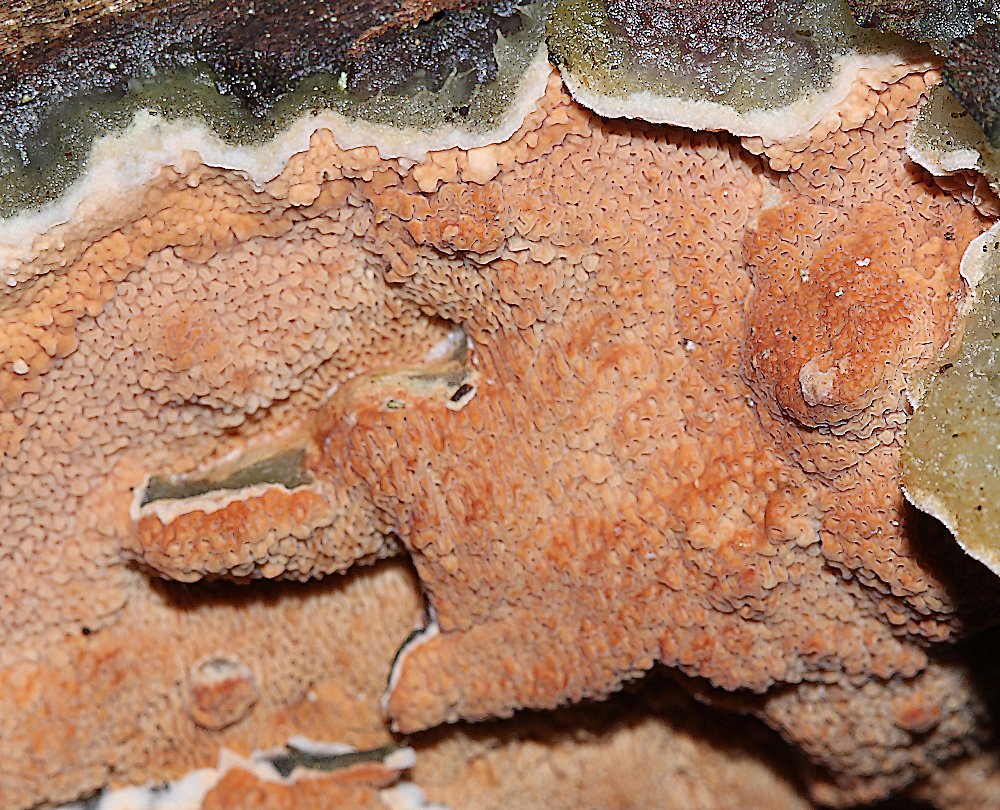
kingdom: Fungi
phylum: Basidiomycota
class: Agaricomycetes
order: Polyporales
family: Irpicaceae
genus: Meruliopsis
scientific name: Meruliopsis taxicola
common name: purpurbrun foldporesvamp
